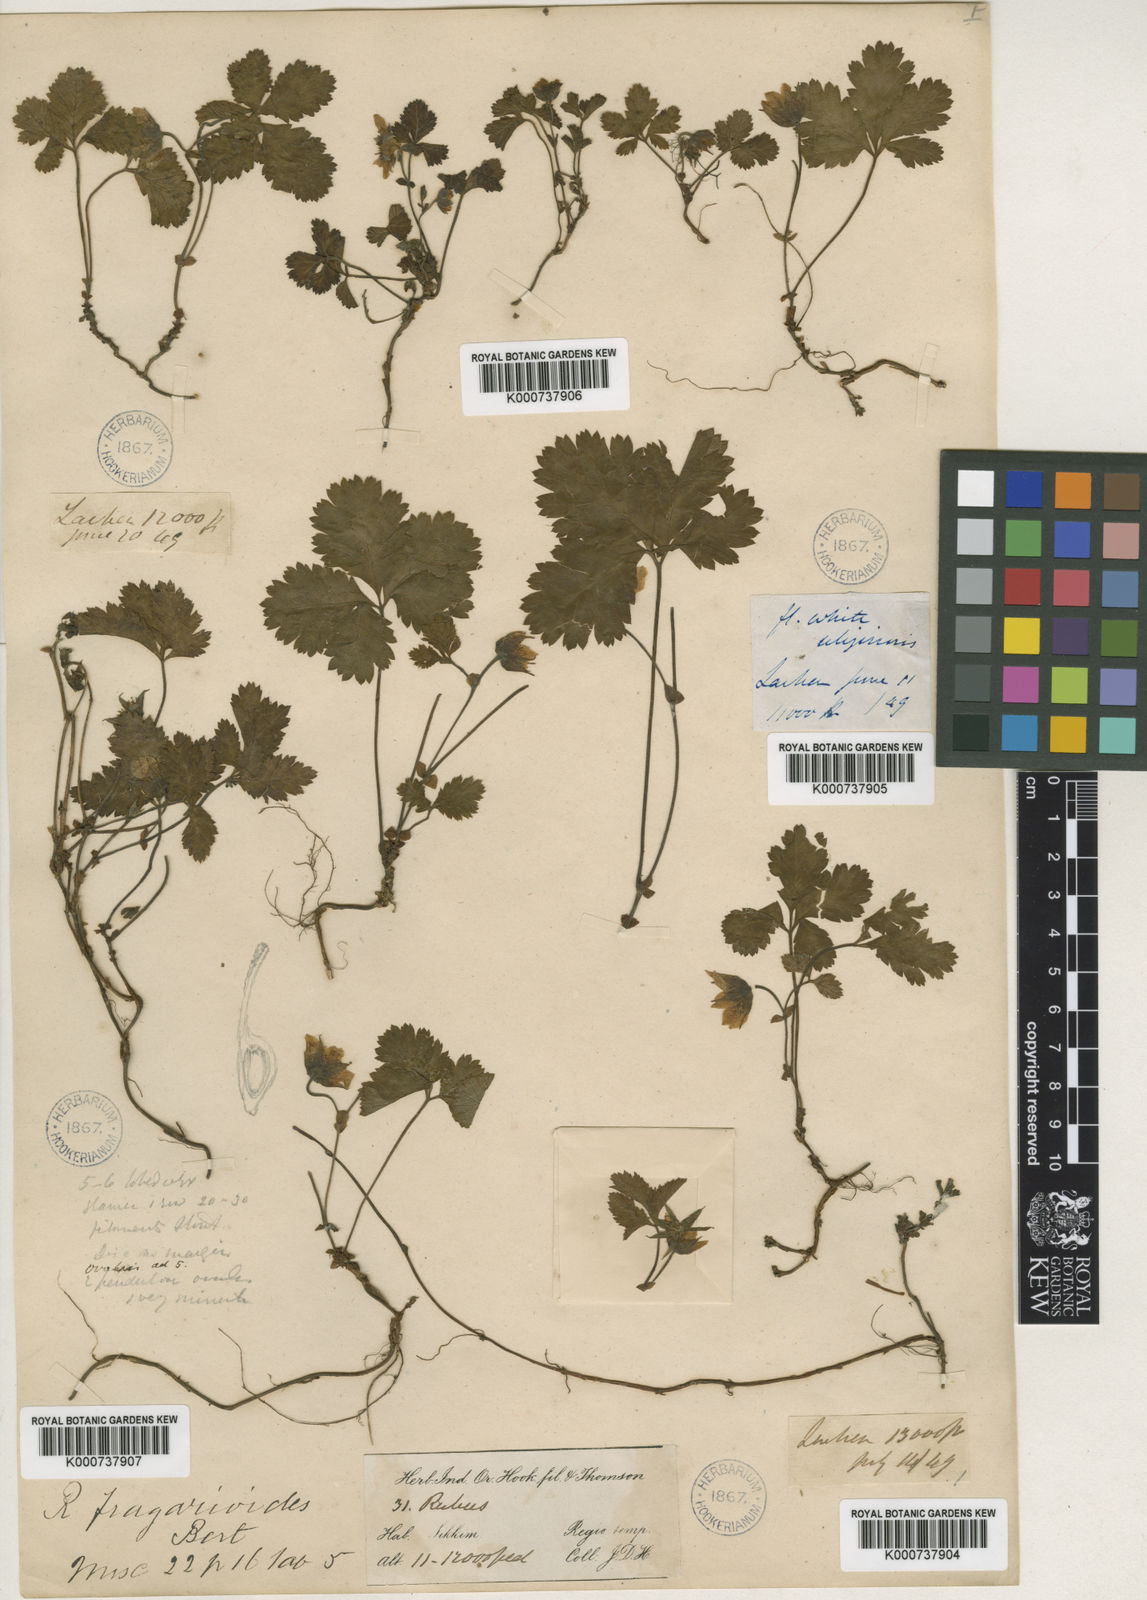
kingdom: Plantae
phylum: Tracheophyta
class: Magnoliopsida
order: Rosales
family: Rosaceae
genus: Rubus
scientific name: Rubus fragarioides
